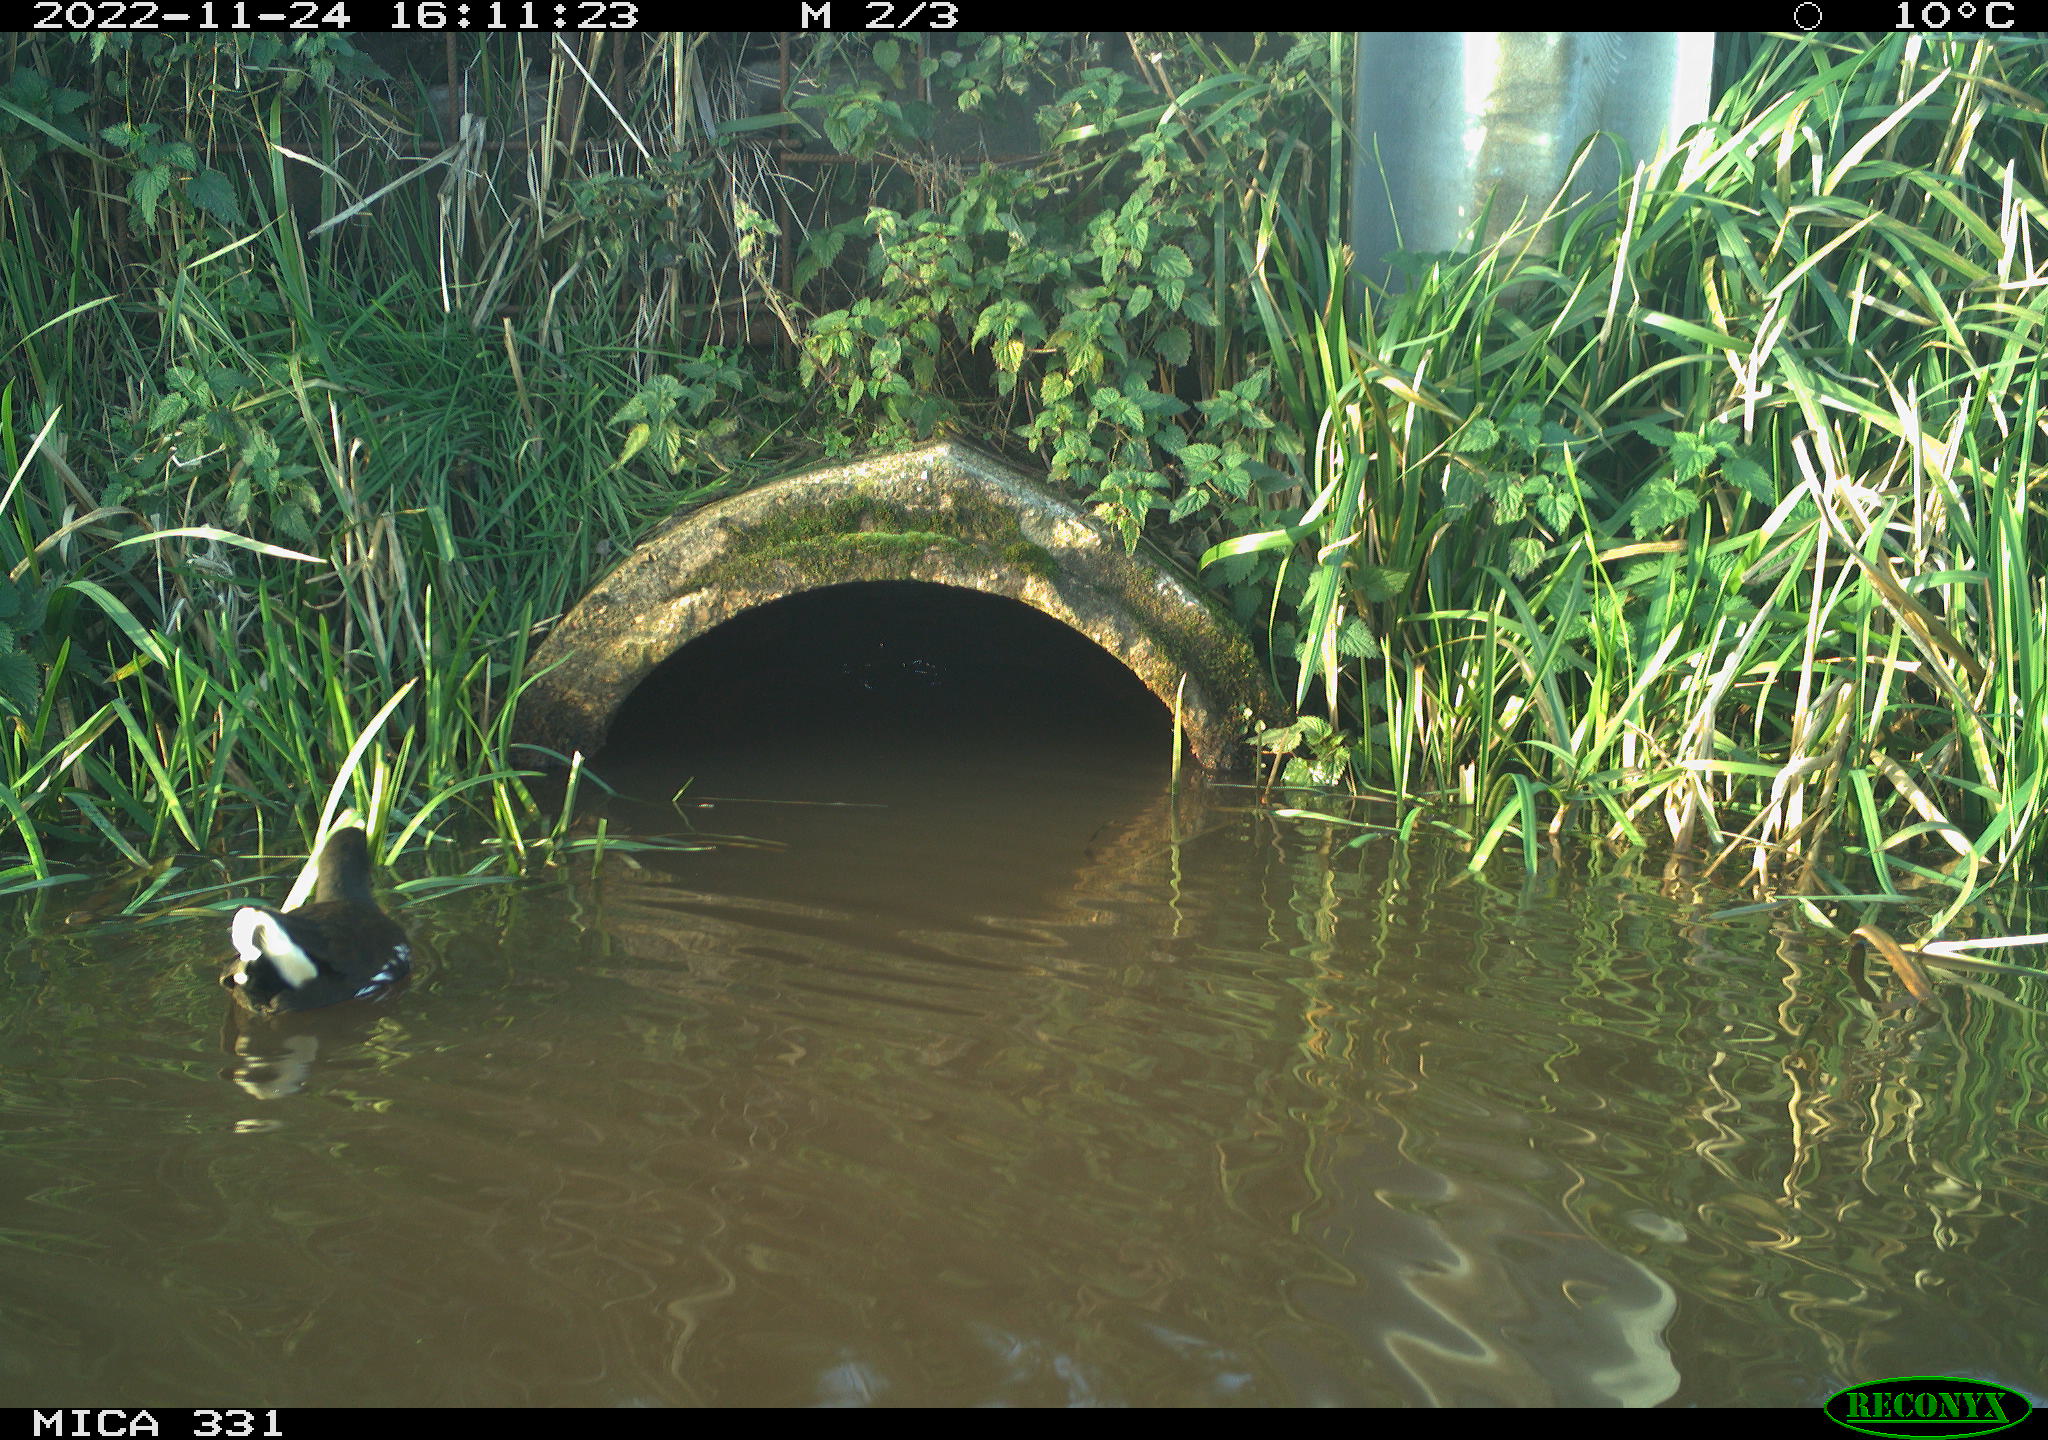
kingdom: Animalia
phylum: Chordata
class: Aves
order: Gruiformes
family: Rallidae
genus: Gallinula
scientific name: Gallinula chloropus
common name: Common moorhen
